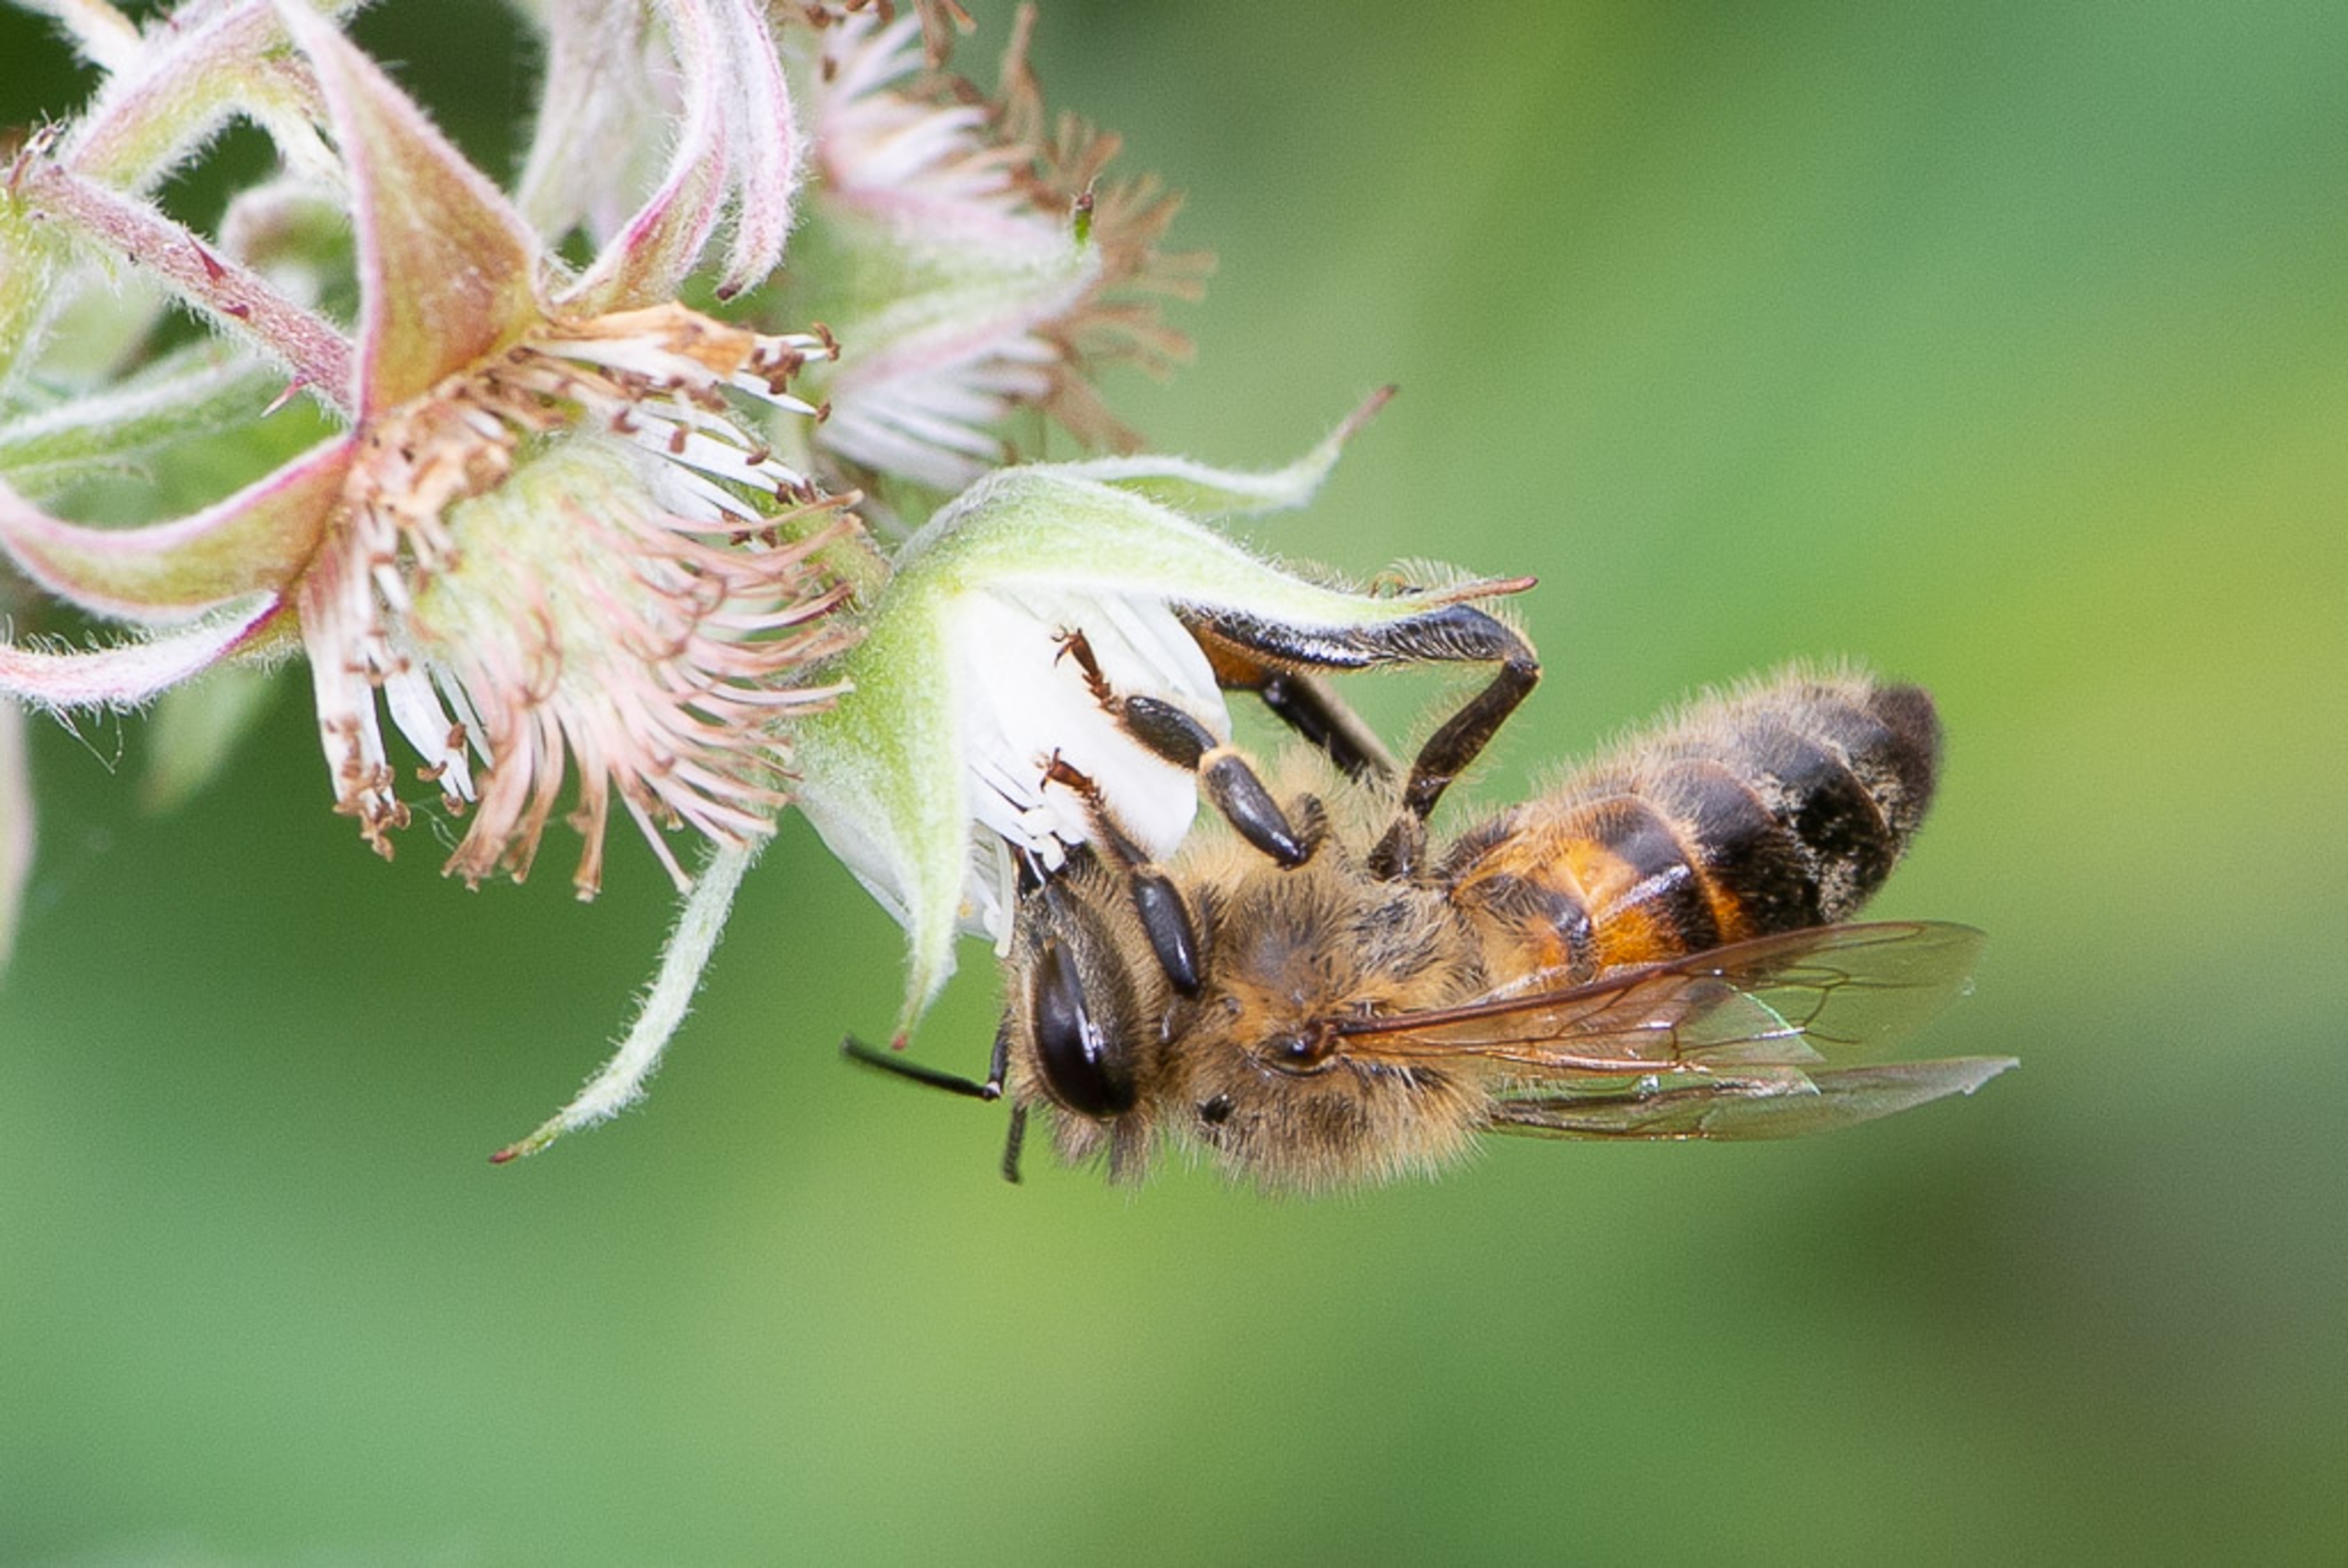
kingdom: Animalia
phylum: Arthropoda
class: Insecta
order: Hymenoptera
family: Apidae
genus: Apis
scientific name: Apis mellifera
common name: Honningbi
